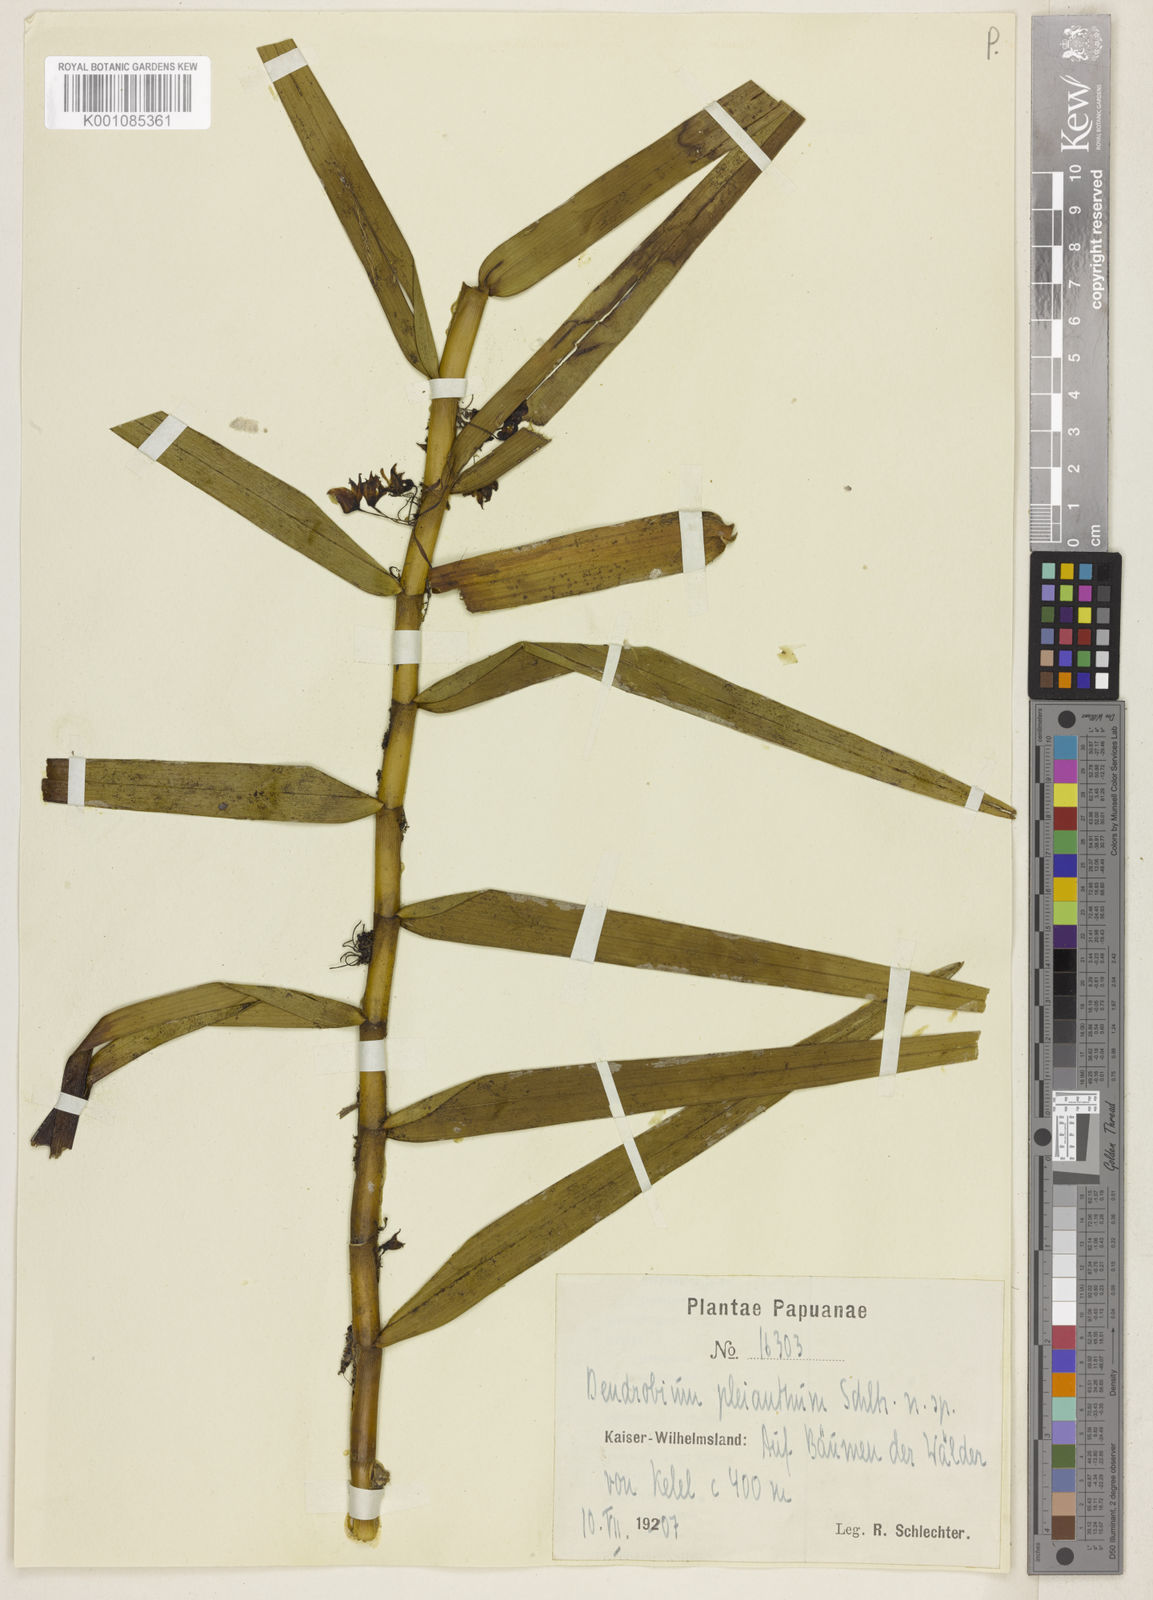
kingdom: Plantae
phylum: Tracheophyta
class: Liliopsida
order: Asparagales
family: Orchidaceae
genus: Dendrobium
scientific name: Dendrobium pleianthum
